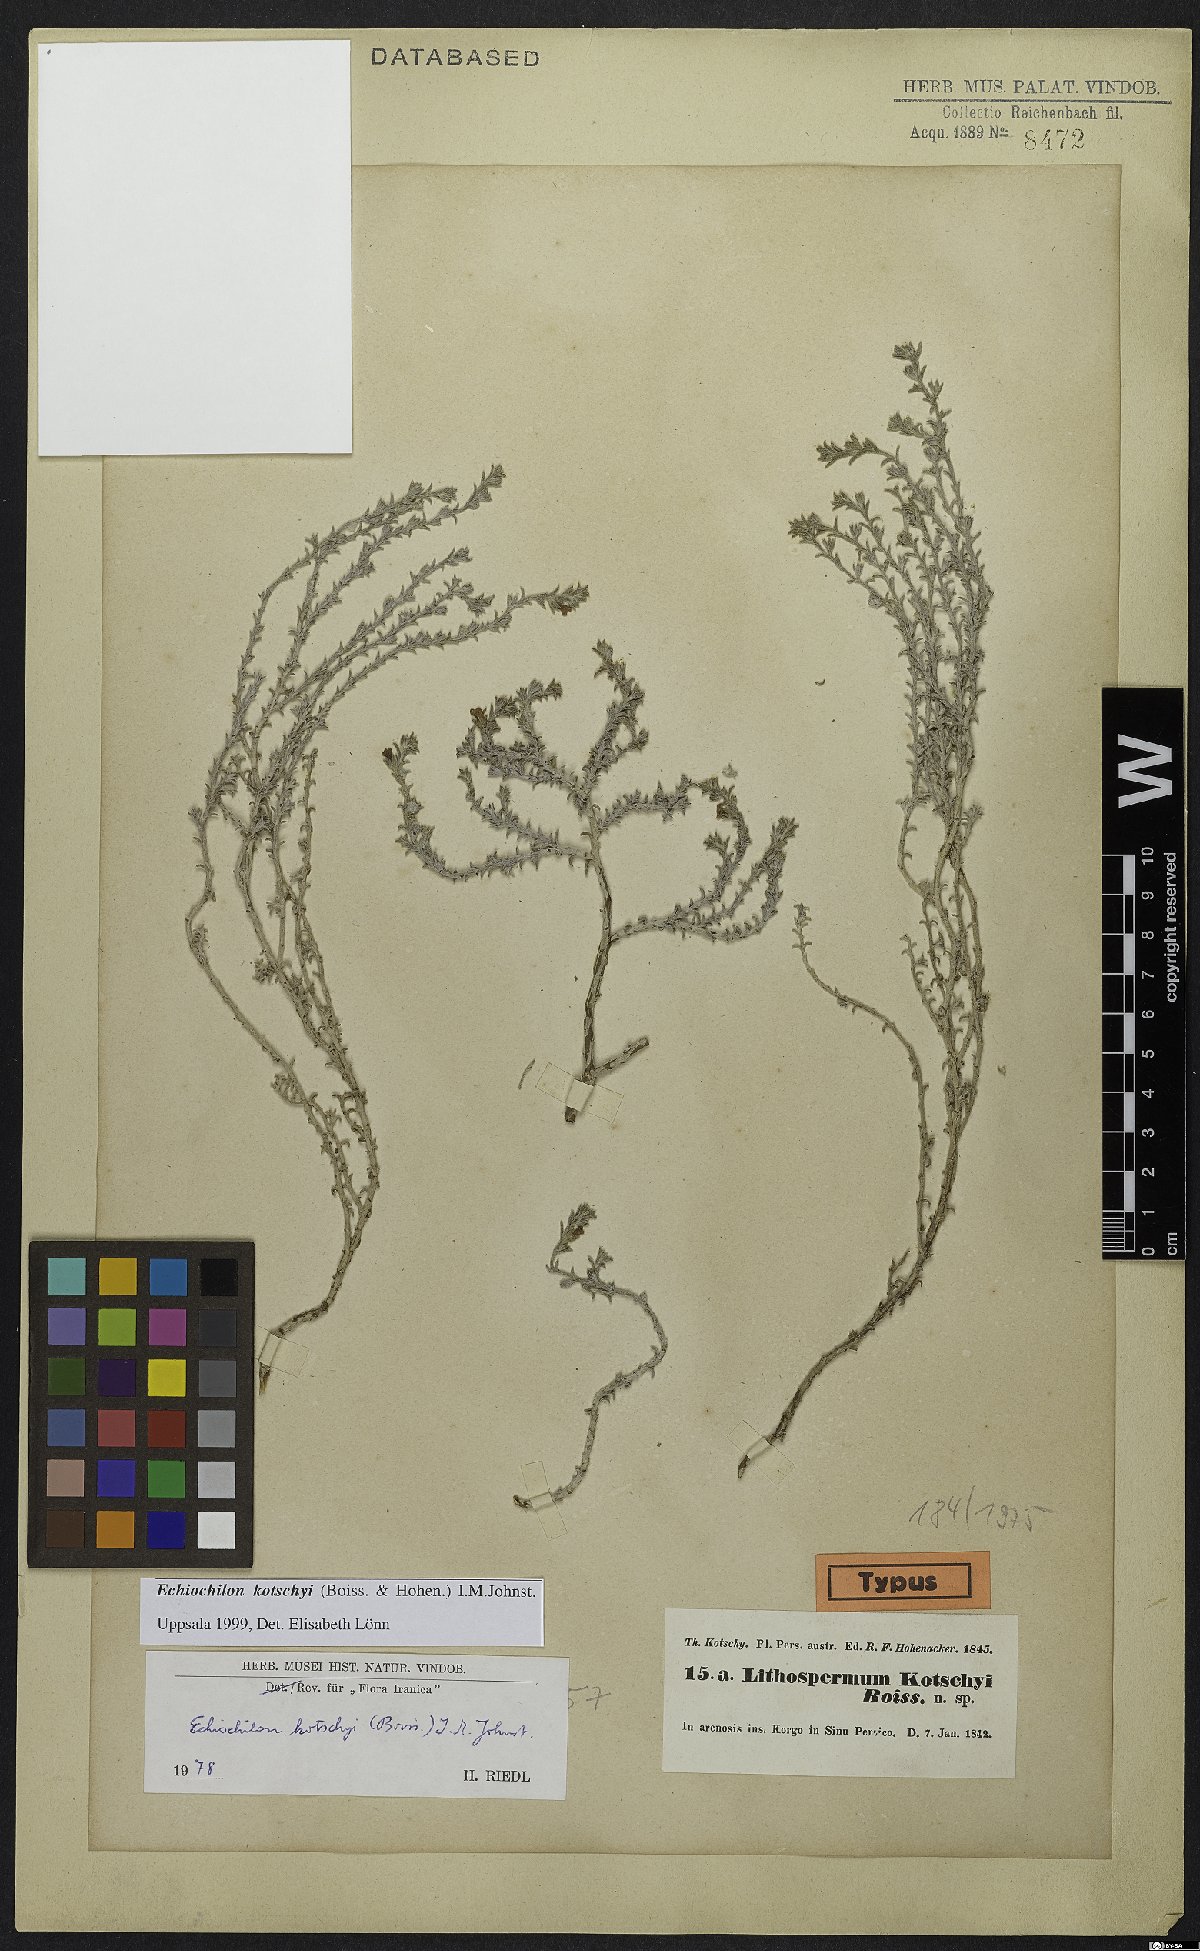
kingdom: Plantae
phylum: Tracheophyta
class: Magnoliopsida
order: Boraginales
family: Boraginaceae
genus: Echiochilon
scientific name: Echiochilon kotschyi
